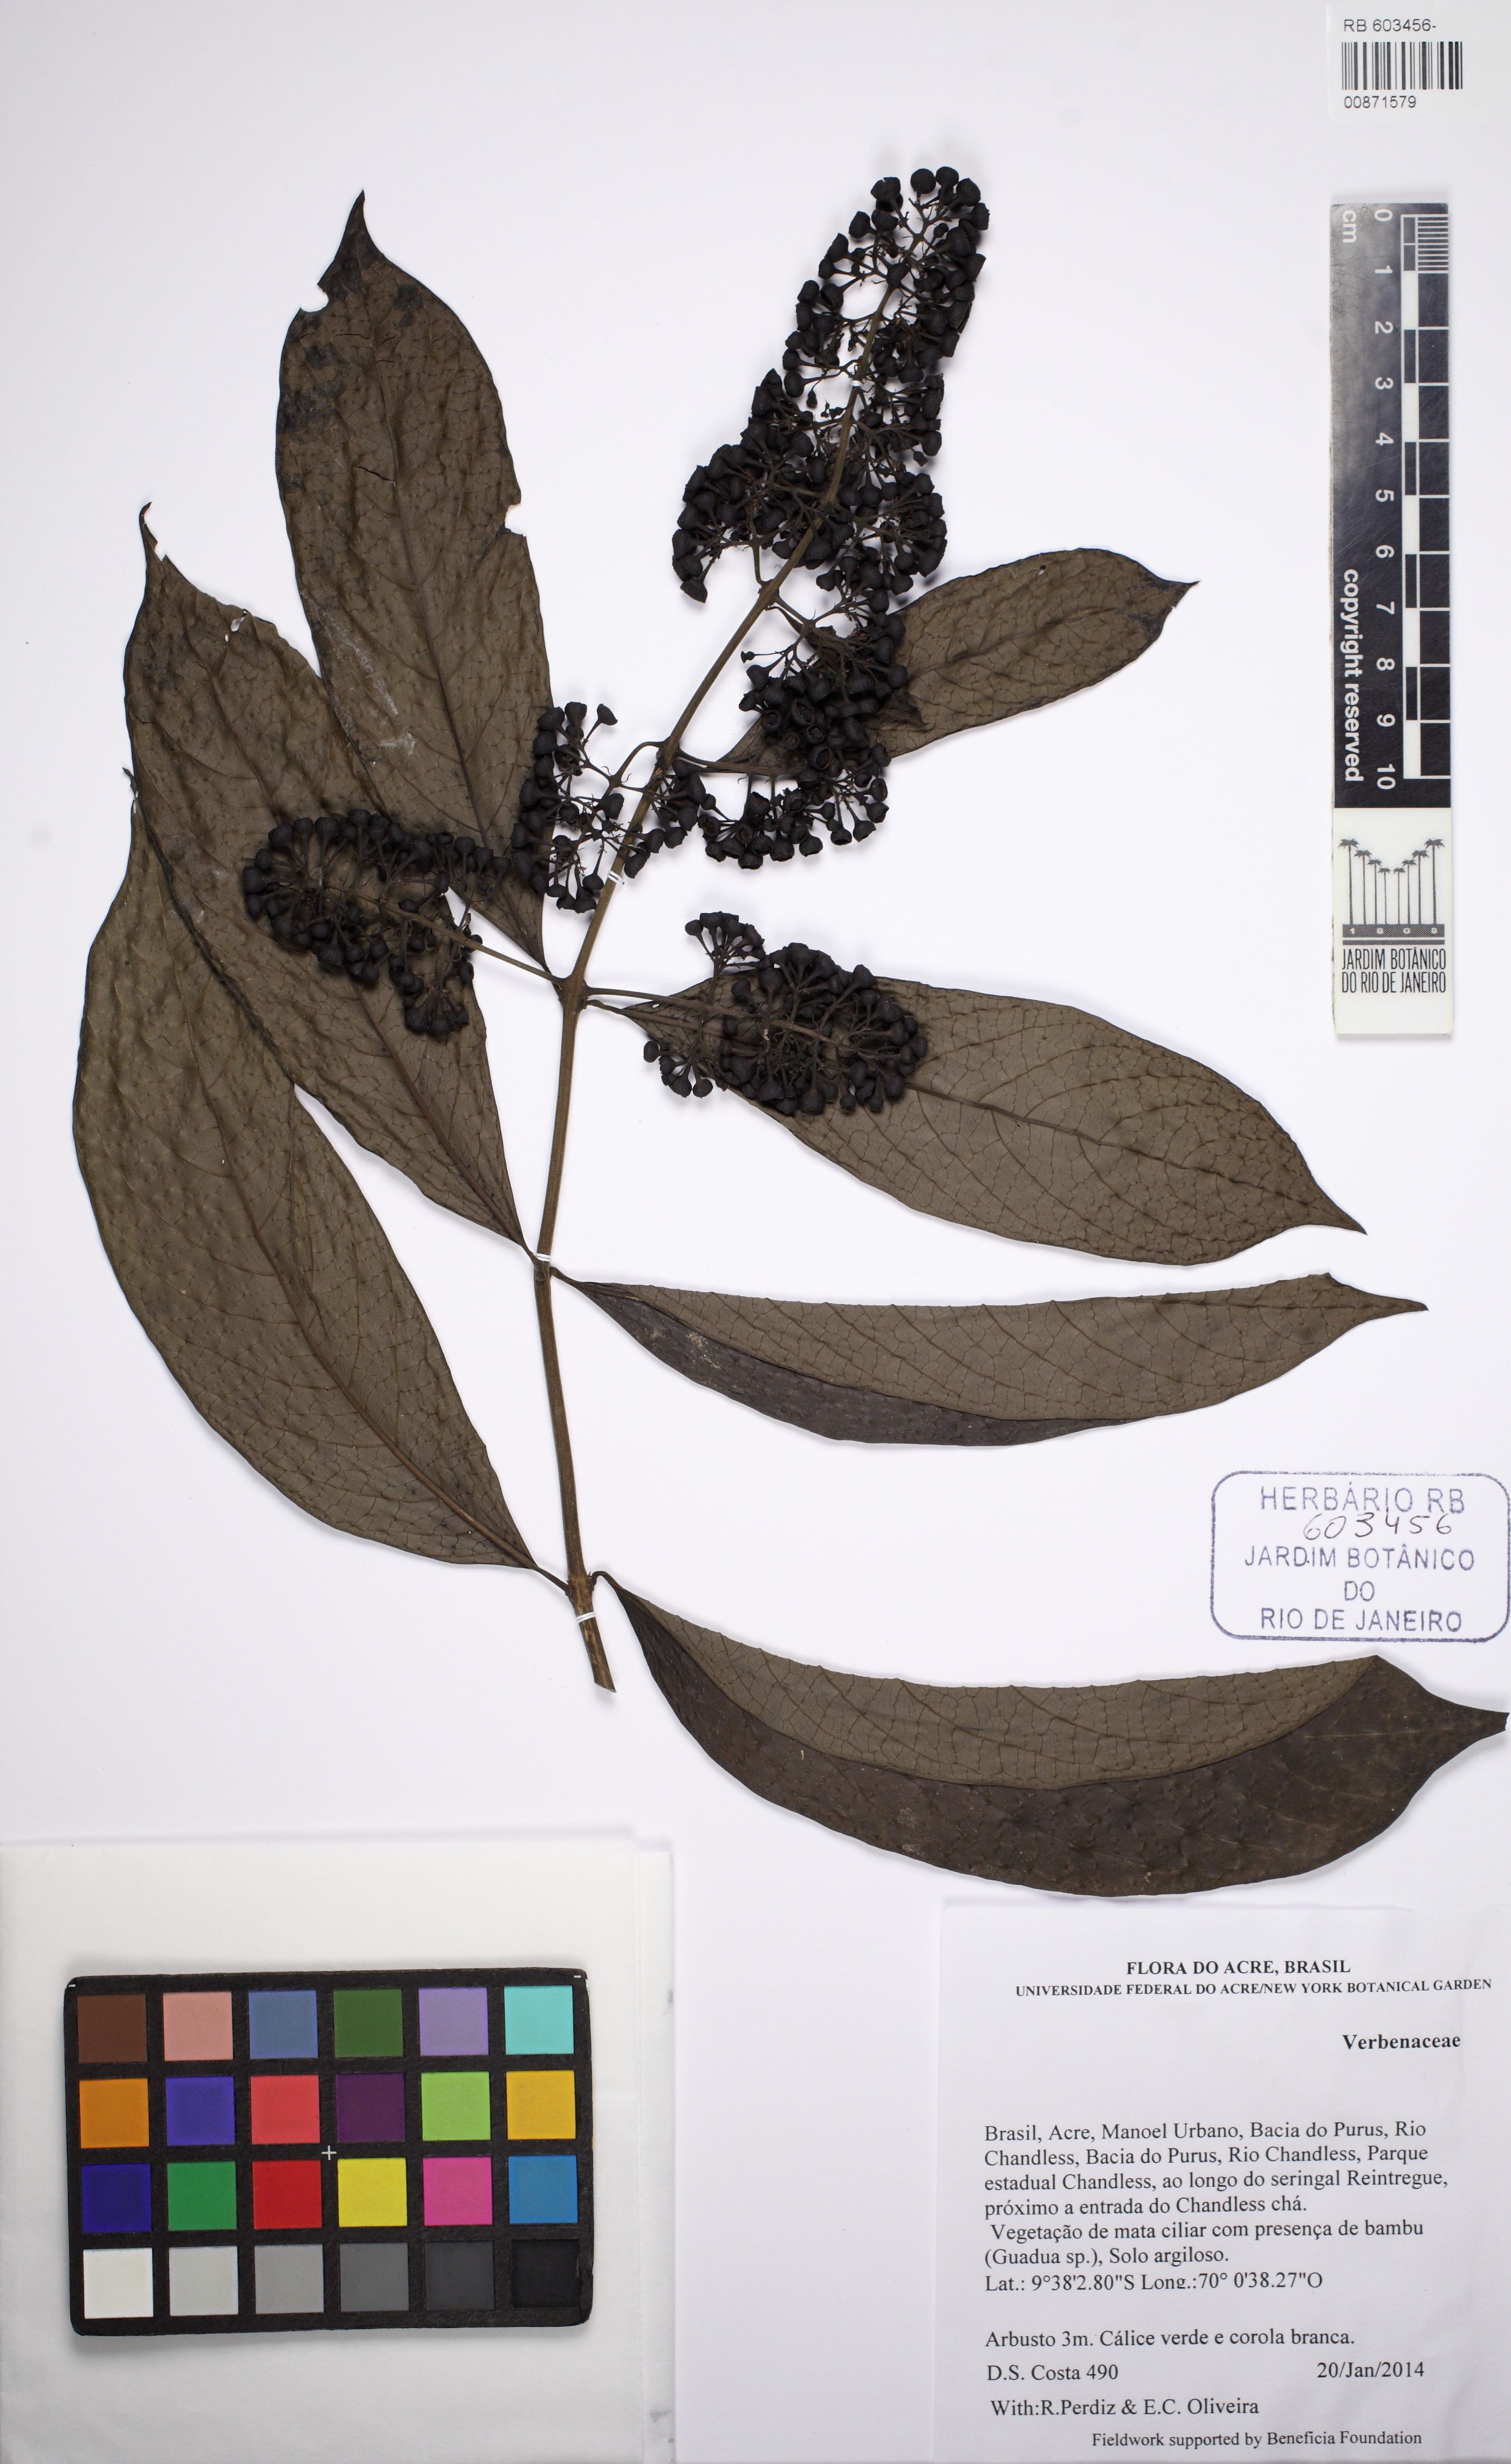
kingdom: Plantae
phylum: Tracheophyta
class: Magnoliopsida
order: Lamiales
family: Verbenaceae
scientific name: Verbenaceae
